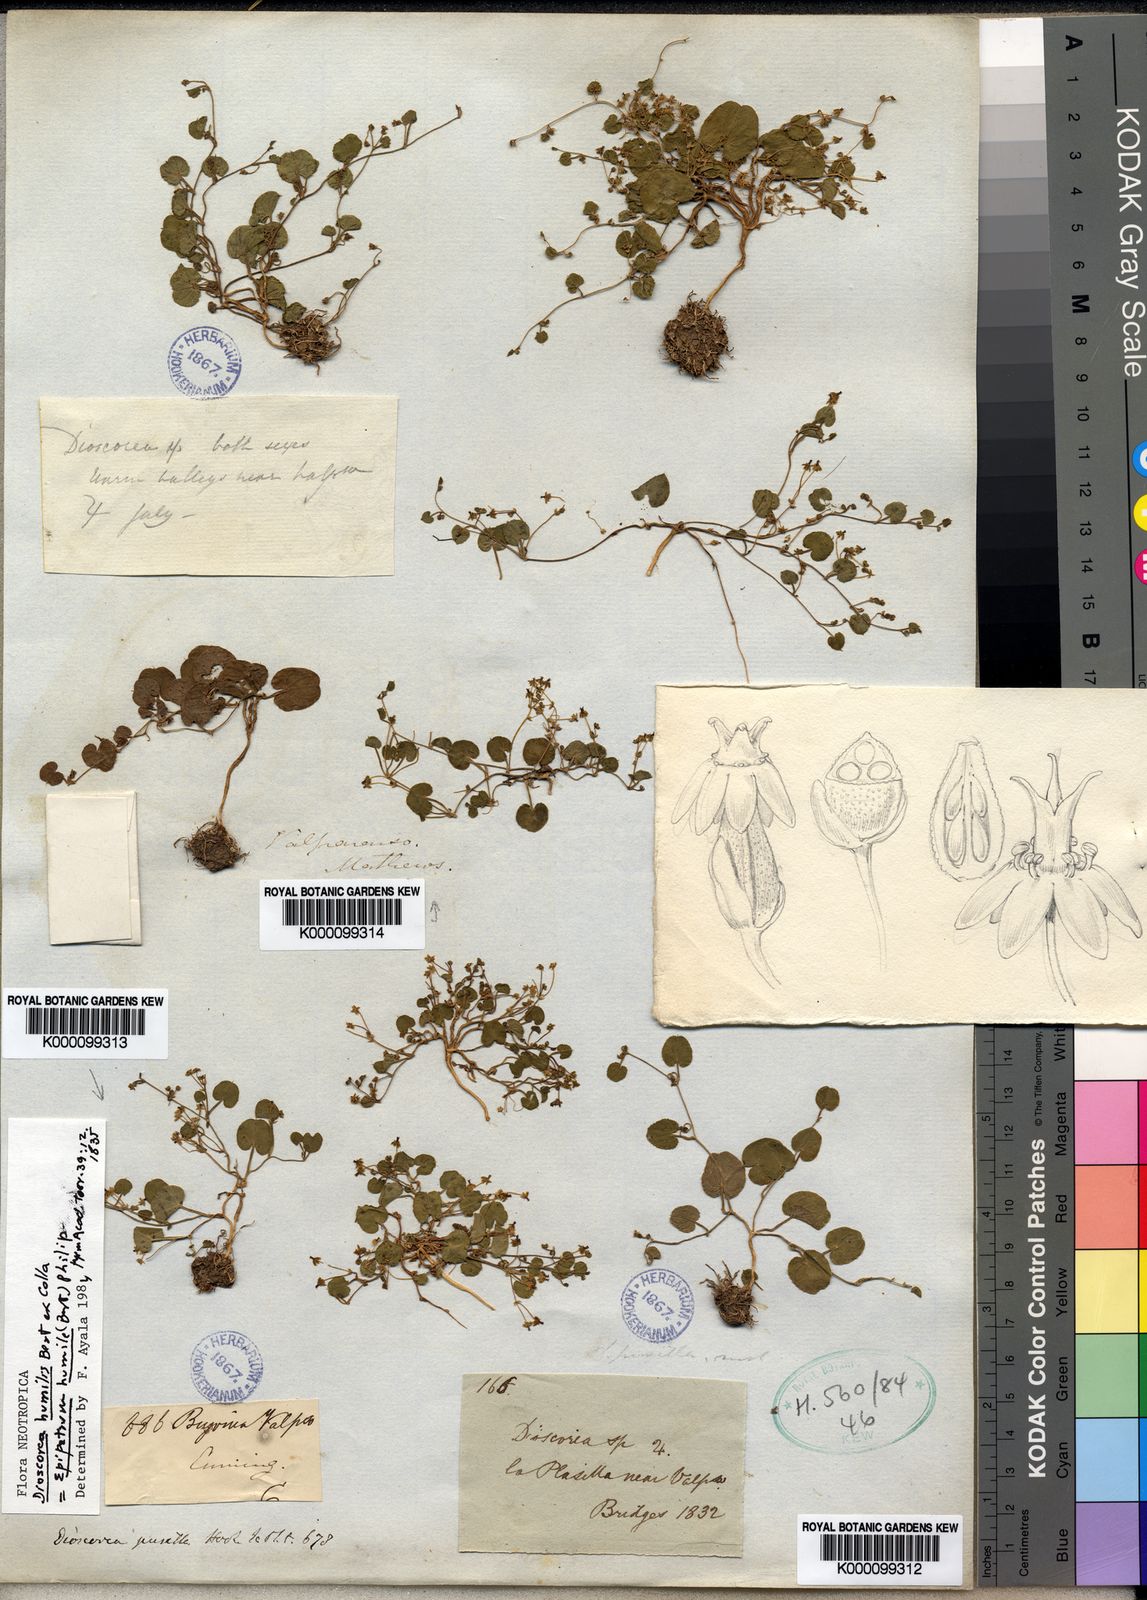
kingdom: Plantae
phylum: Tracheophyta
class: Liliopsida
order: Dioscoreales
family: Dioscoreaceae
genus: Dioscorea
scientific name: Dioscorea humilis
